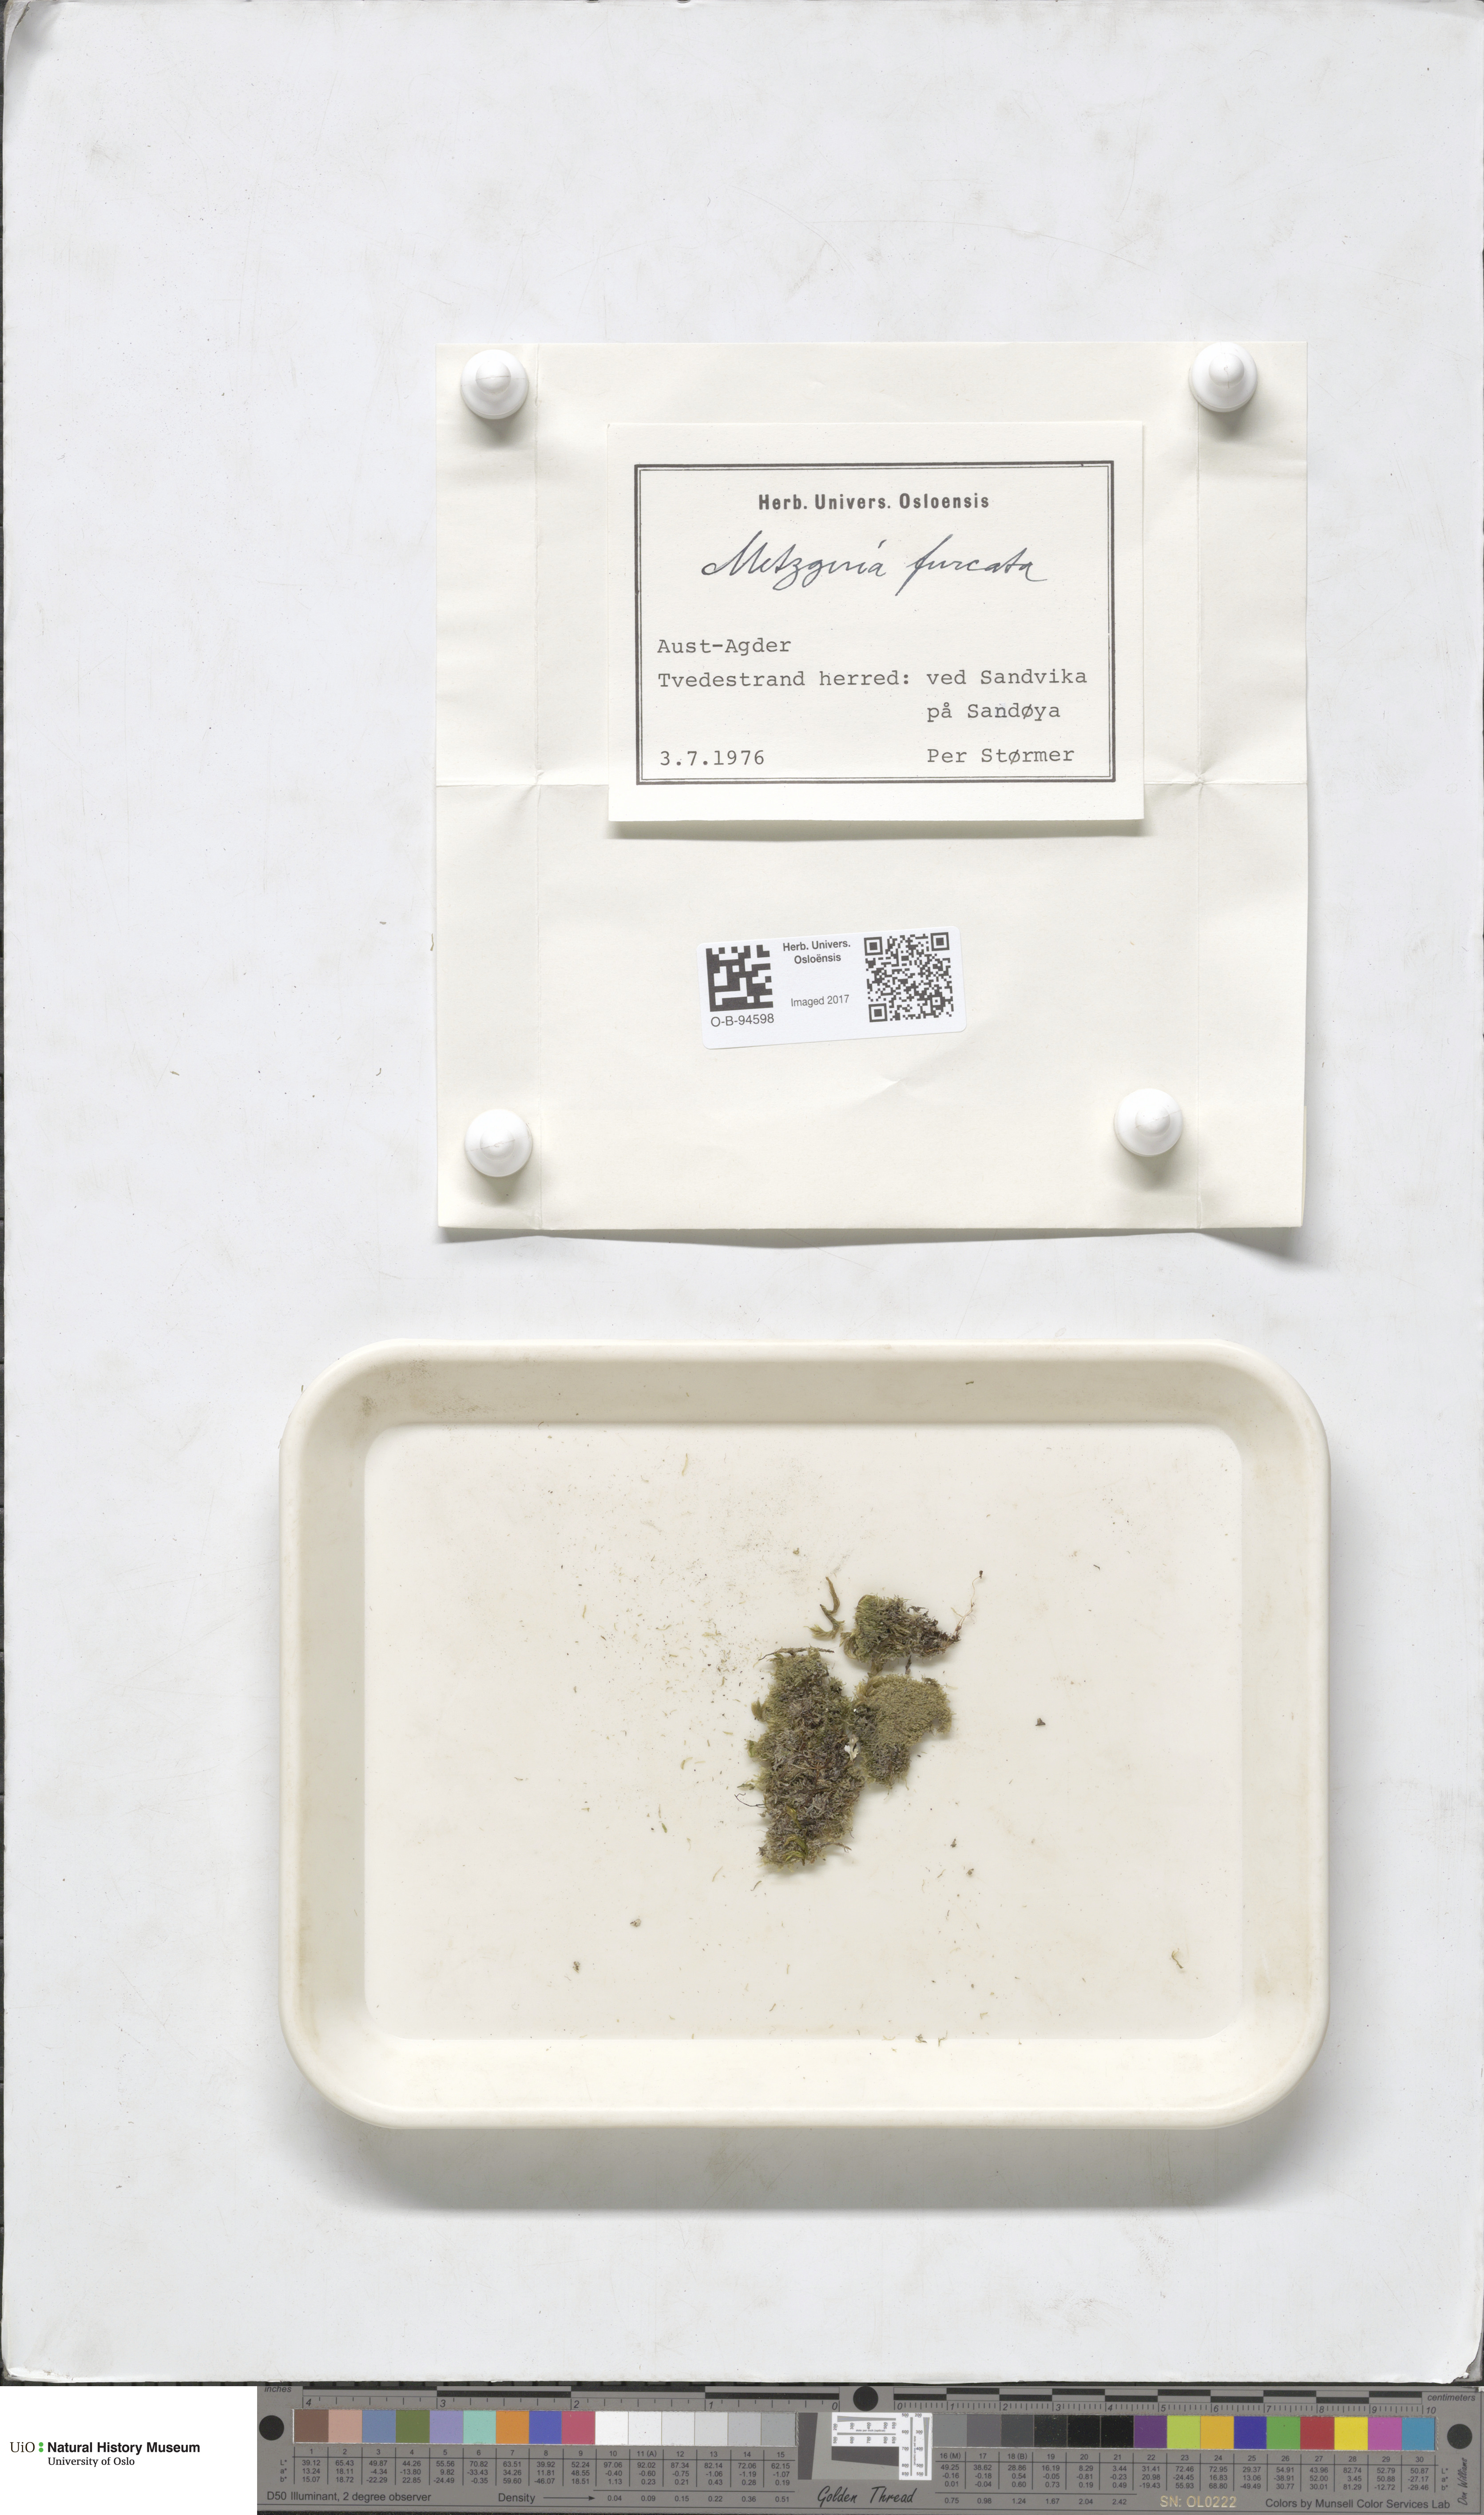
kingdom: Plantae
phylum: Marchantiophyta
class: Jungermanniopsida
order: Metzgeriales
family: Metzgeriaceae
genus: Metzgeria
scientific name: Metzgeria furcata
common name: Forked veilwort
